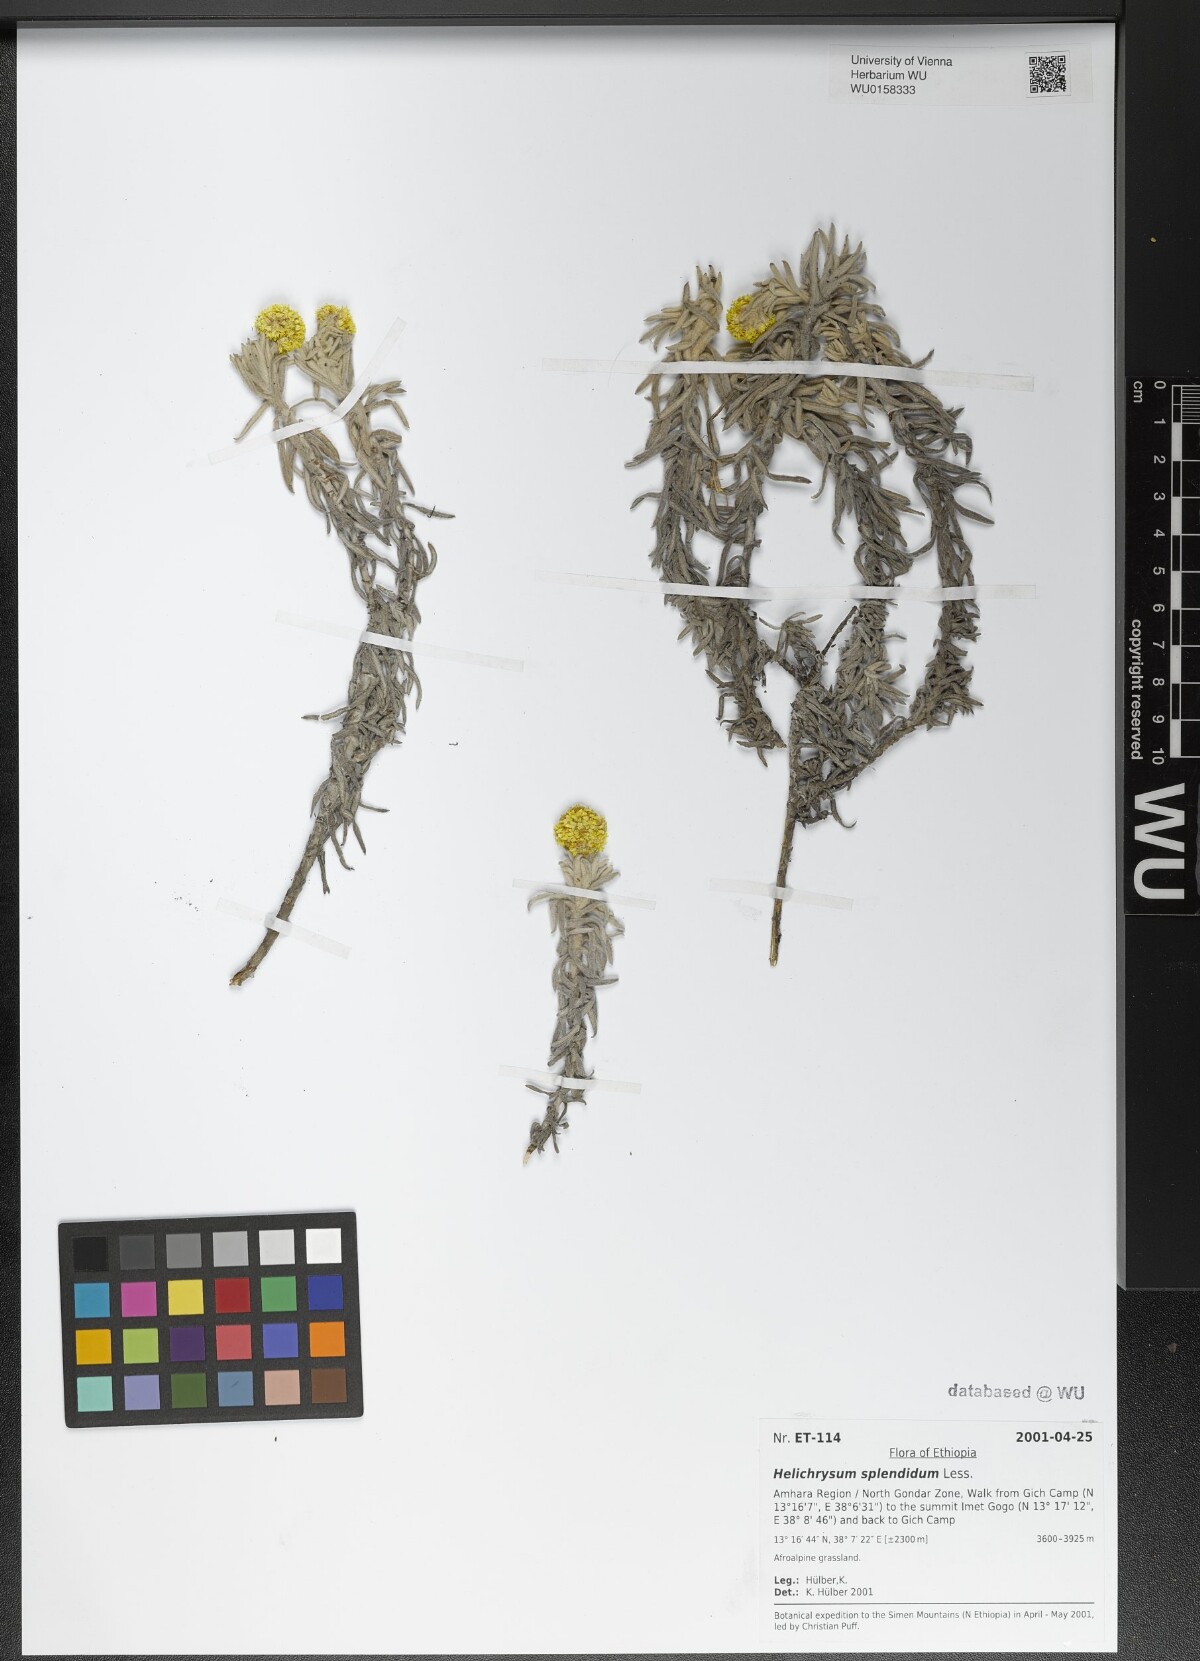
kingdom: Plantae
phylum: Tracheophyta
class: Magnoliopsida
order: Asterales
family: Asteraceae
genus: Helichrysum
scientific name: Helichrysum splendidum
